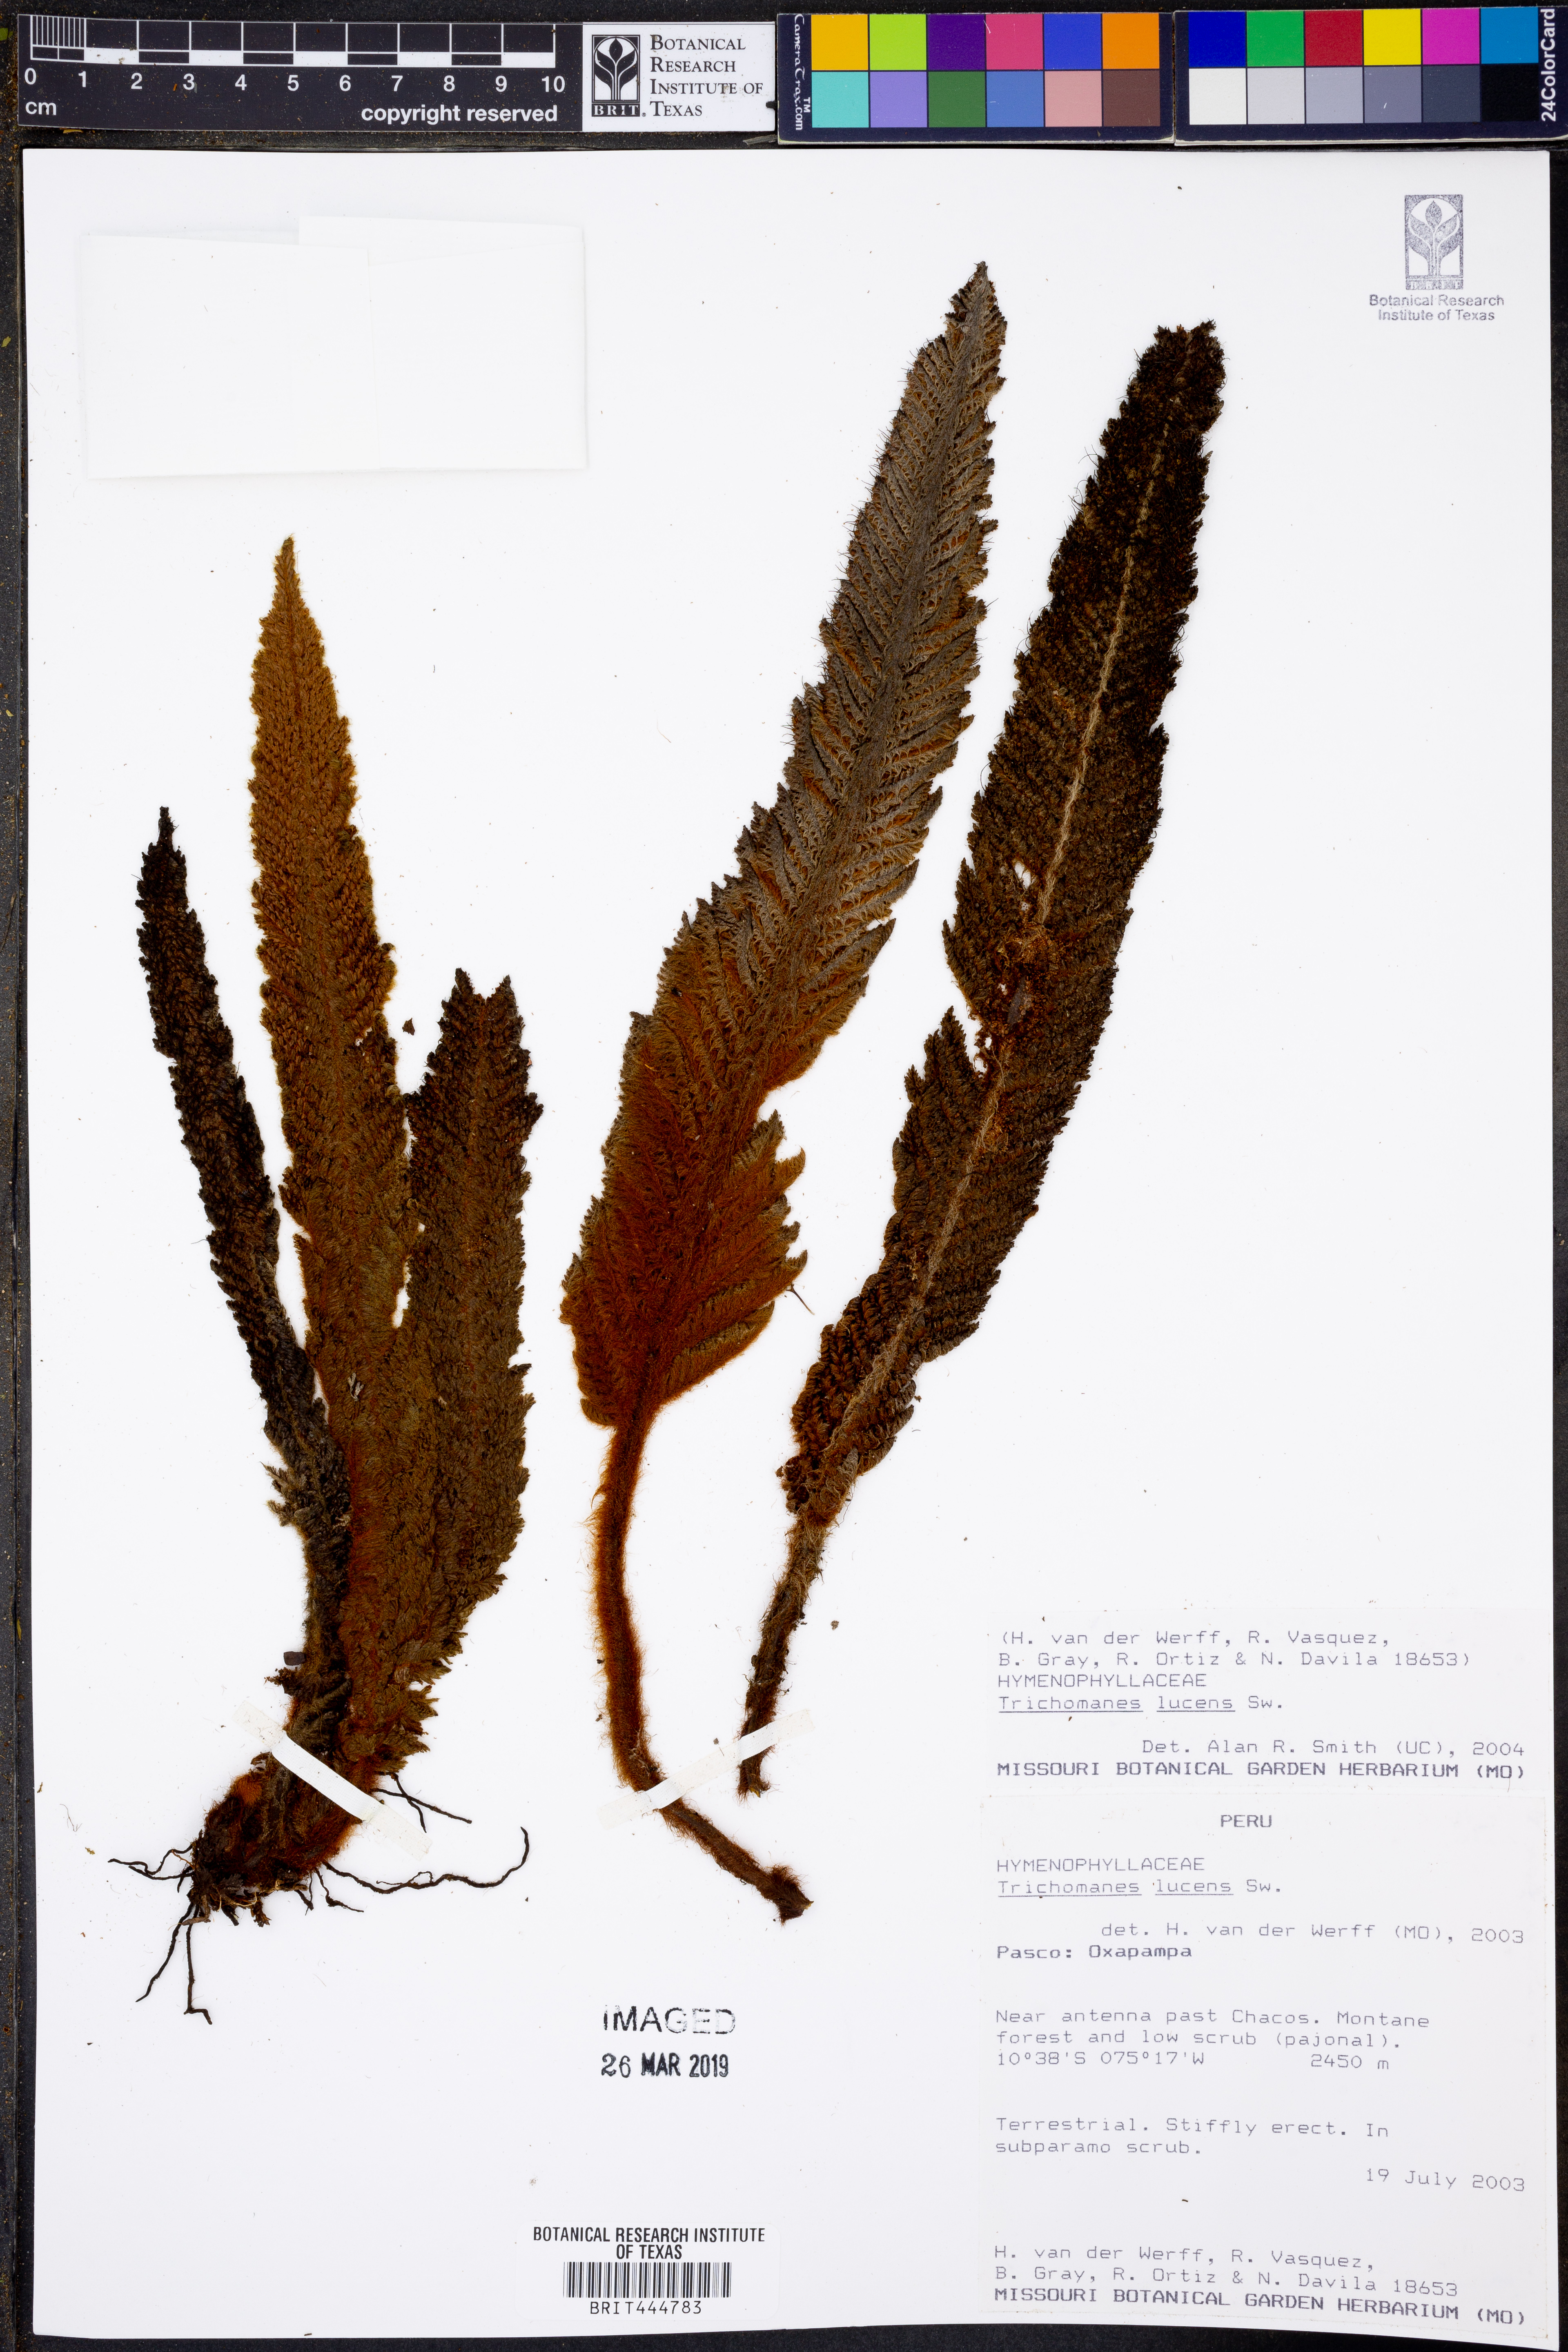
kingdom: Plantae
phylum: Tracheophyta
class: Polypodiopsida
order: Hymenophyllales
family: Hymenophyllaceae
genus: Trichomanes
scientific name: Trichomanes lucens
